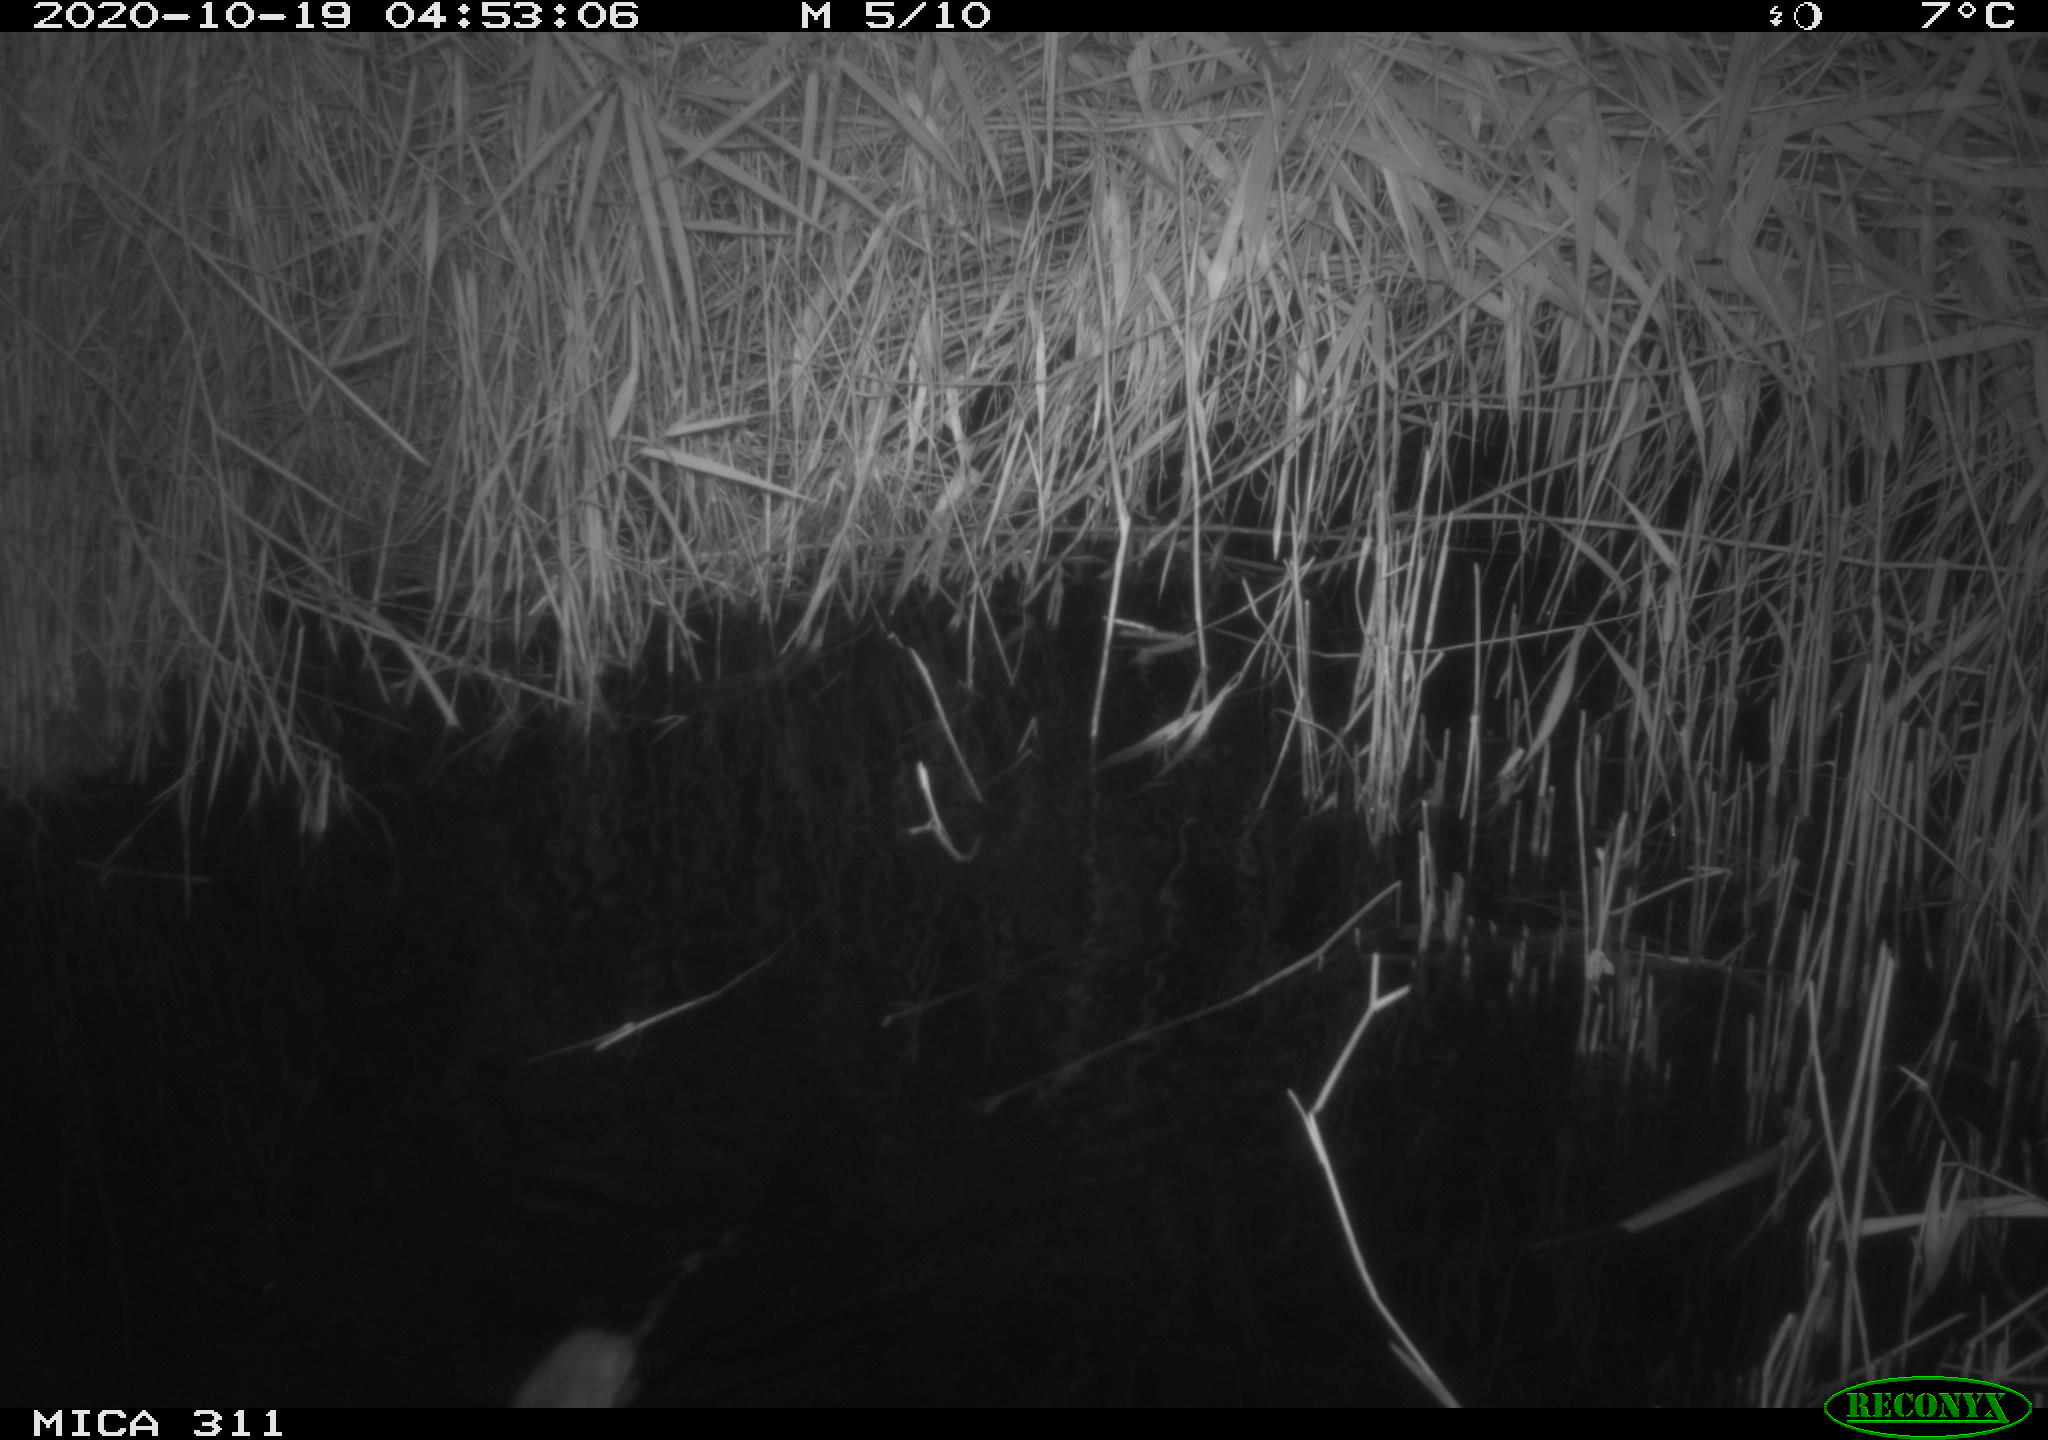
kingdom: Animalia
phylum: Chordata
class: Mammalia
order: Rodentia
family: Muridae
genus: Rattus
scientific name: Rattus norvegicus
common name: Brown rat
